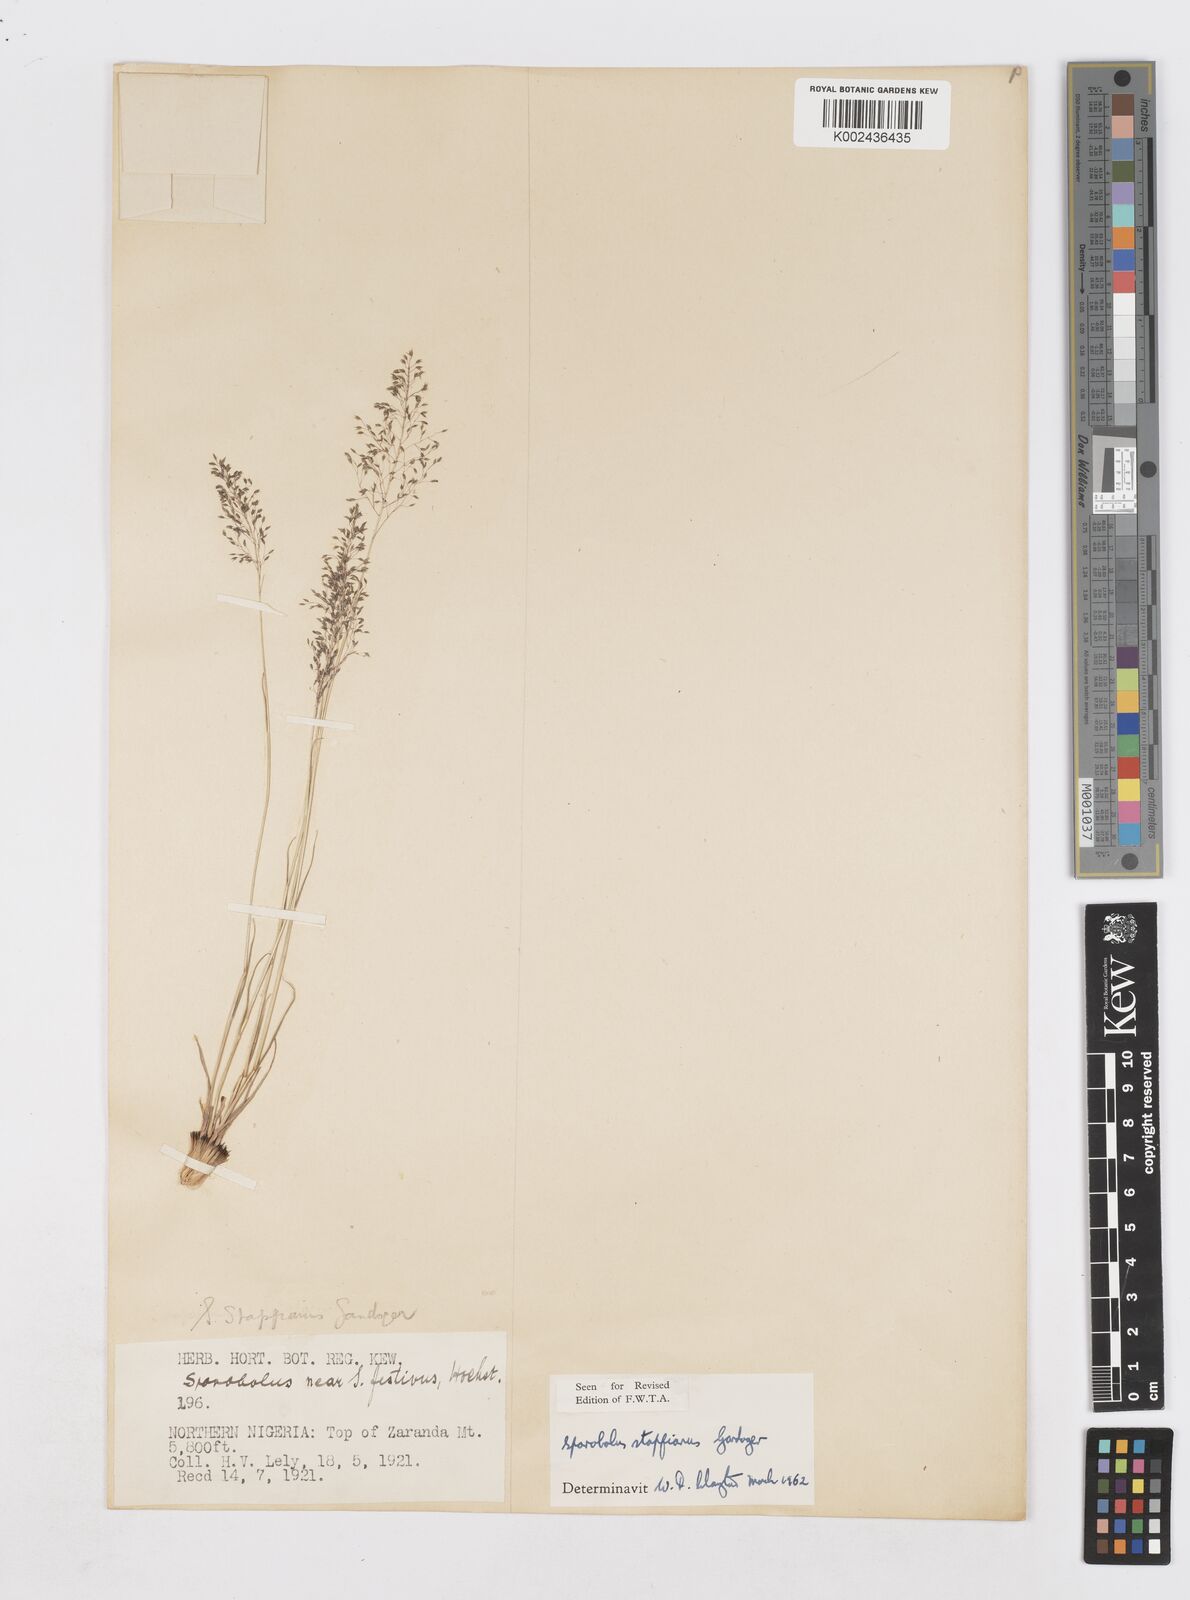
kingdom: Plantae
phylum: Tracheophyta
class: Liliopsida
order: Poales
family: Poaceae
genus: Sporobolus
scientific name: Sporobolus stapfianus
